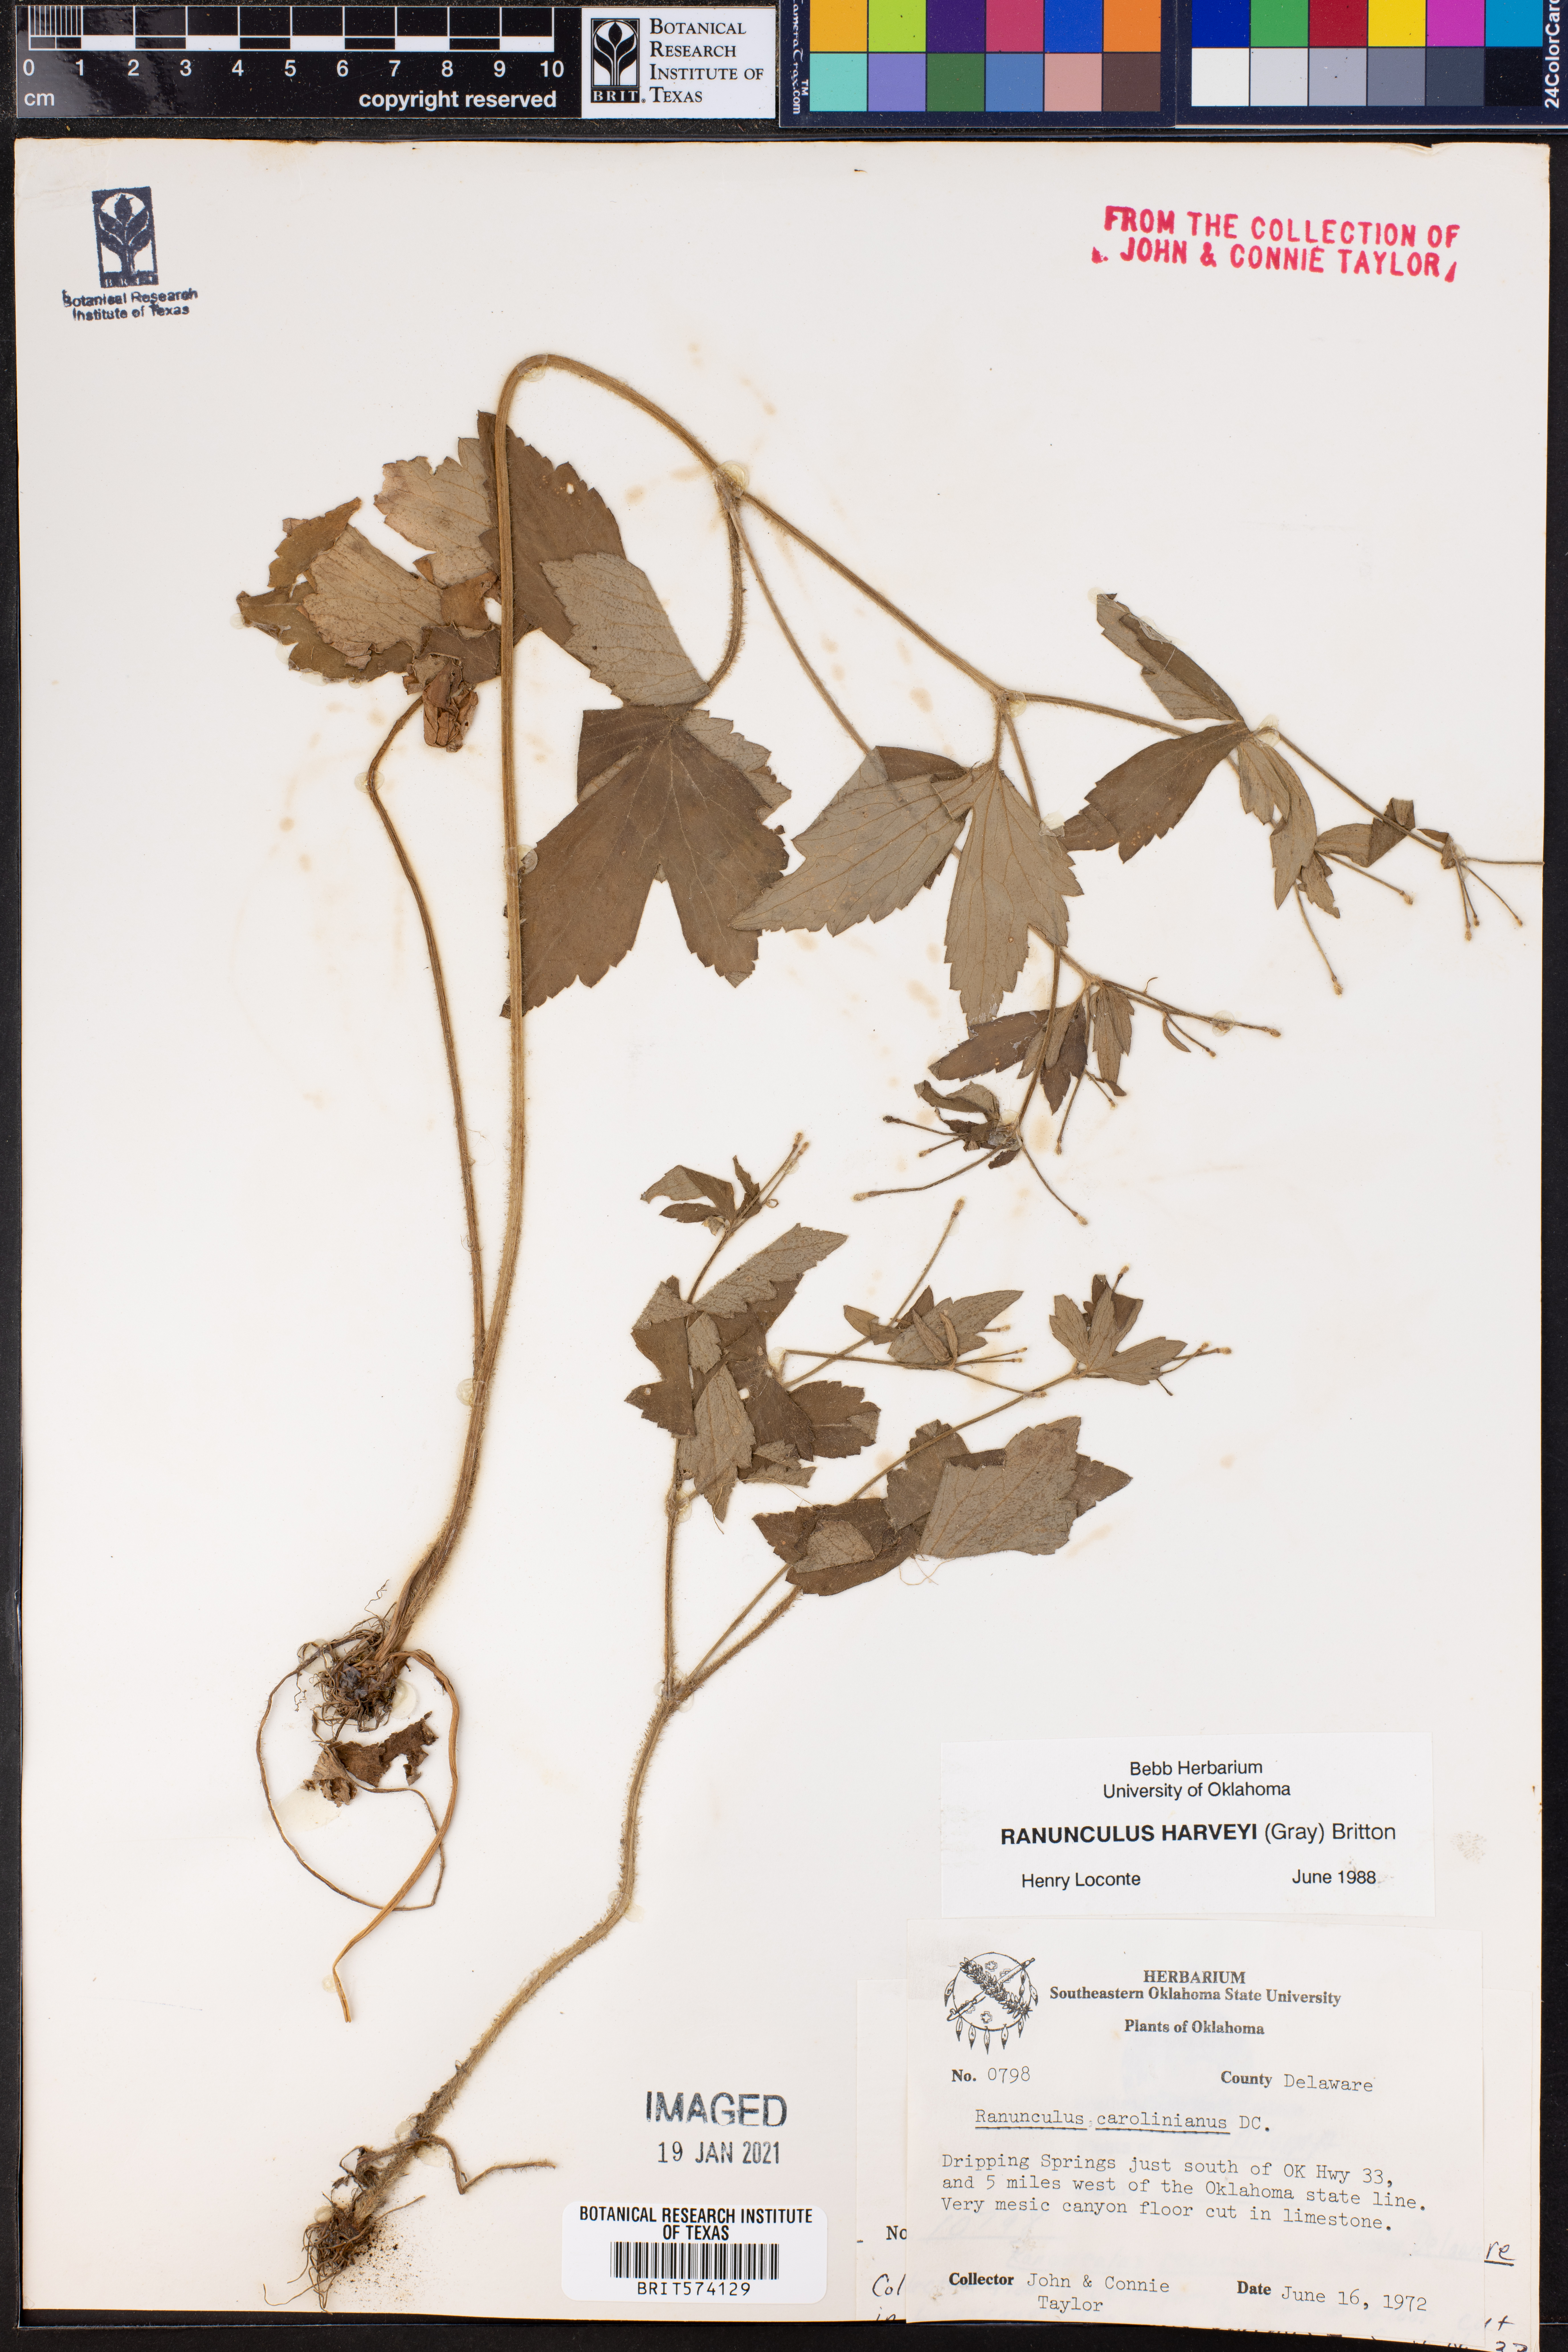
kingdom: Plantae
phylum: Tracheophyta
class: Magnoliopsida
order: Ranunculales
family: Ranunculaceae
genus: Ranunculus
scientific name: Ranunculus harveyi
